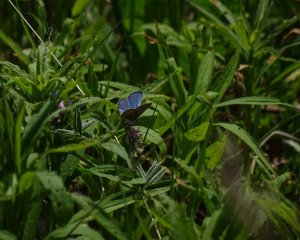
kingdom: Animalia
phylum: Arthropoda
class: Insecta
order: Lepidoptera
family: Lycaenidae
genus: Glaucopsyche
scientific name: Glaucopsyche lygdamus
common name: Silvery Blue
